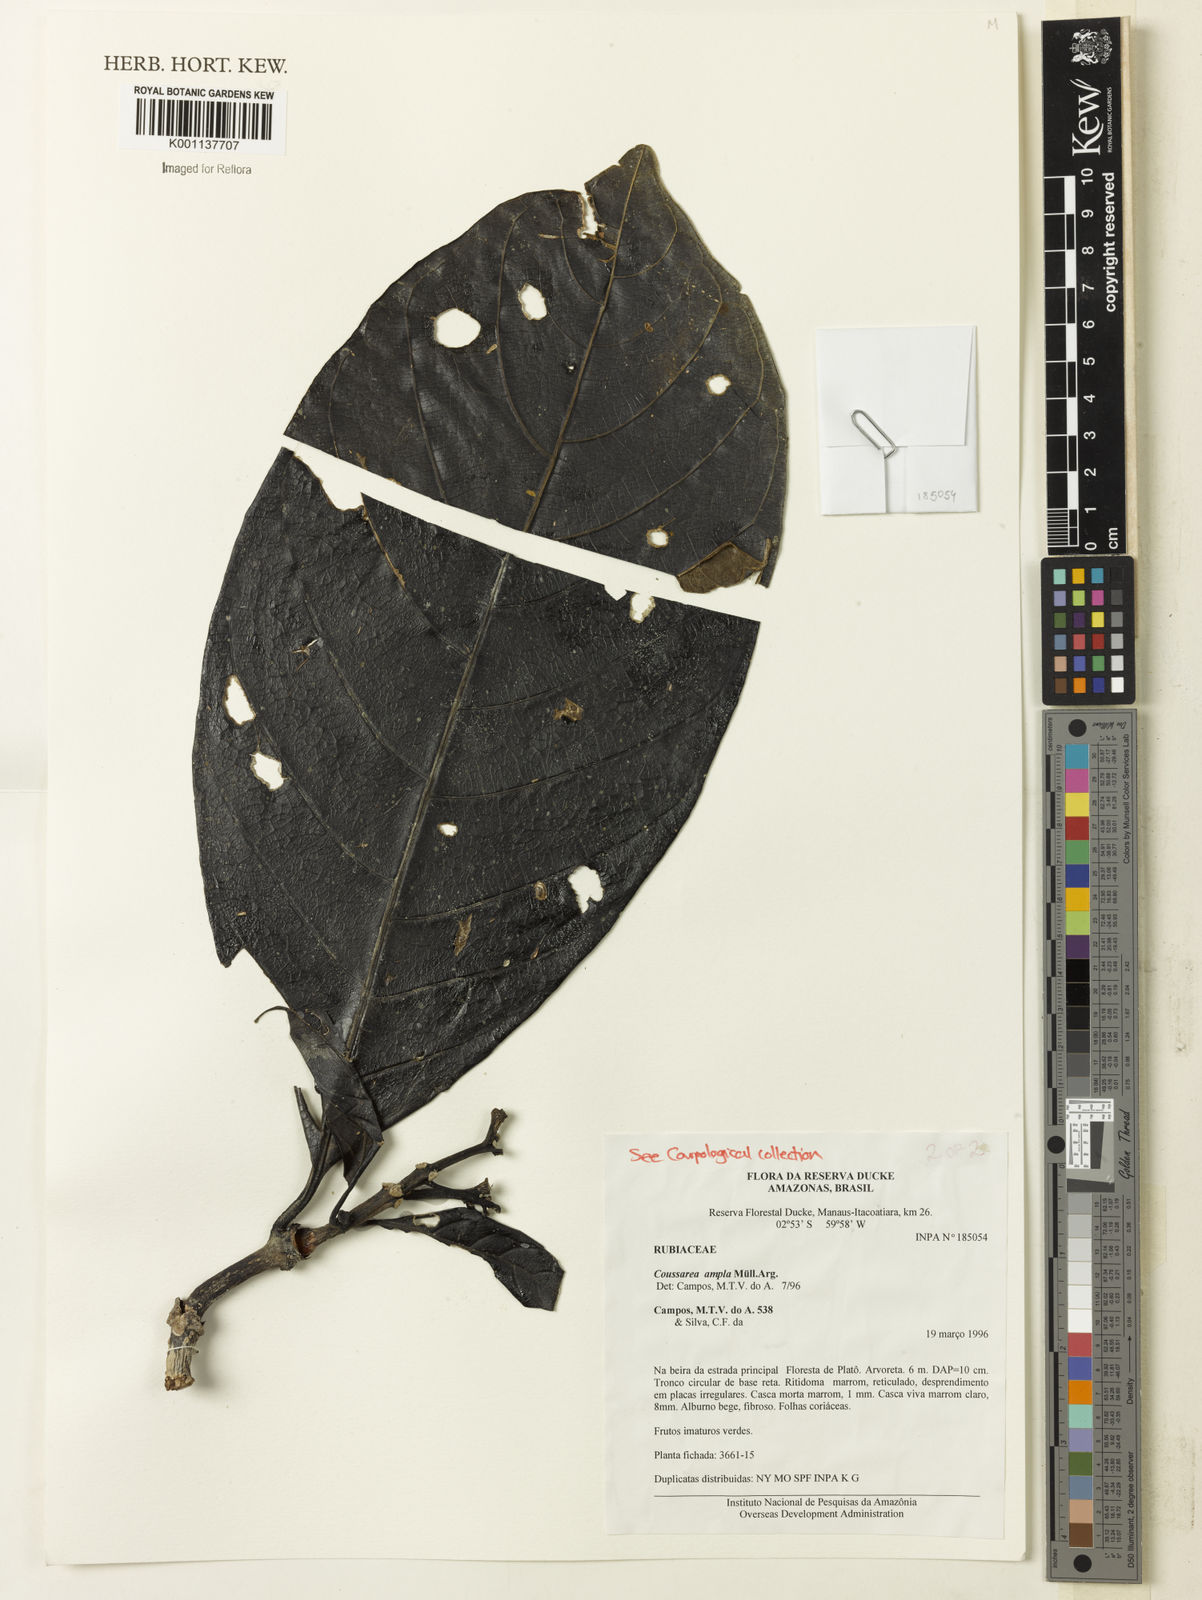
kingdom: Plantae
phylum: Tracheophyta
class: Magnoliopsida
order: Gentianales
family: Rubiaceae
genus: Coussarea
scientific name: Coussarea
